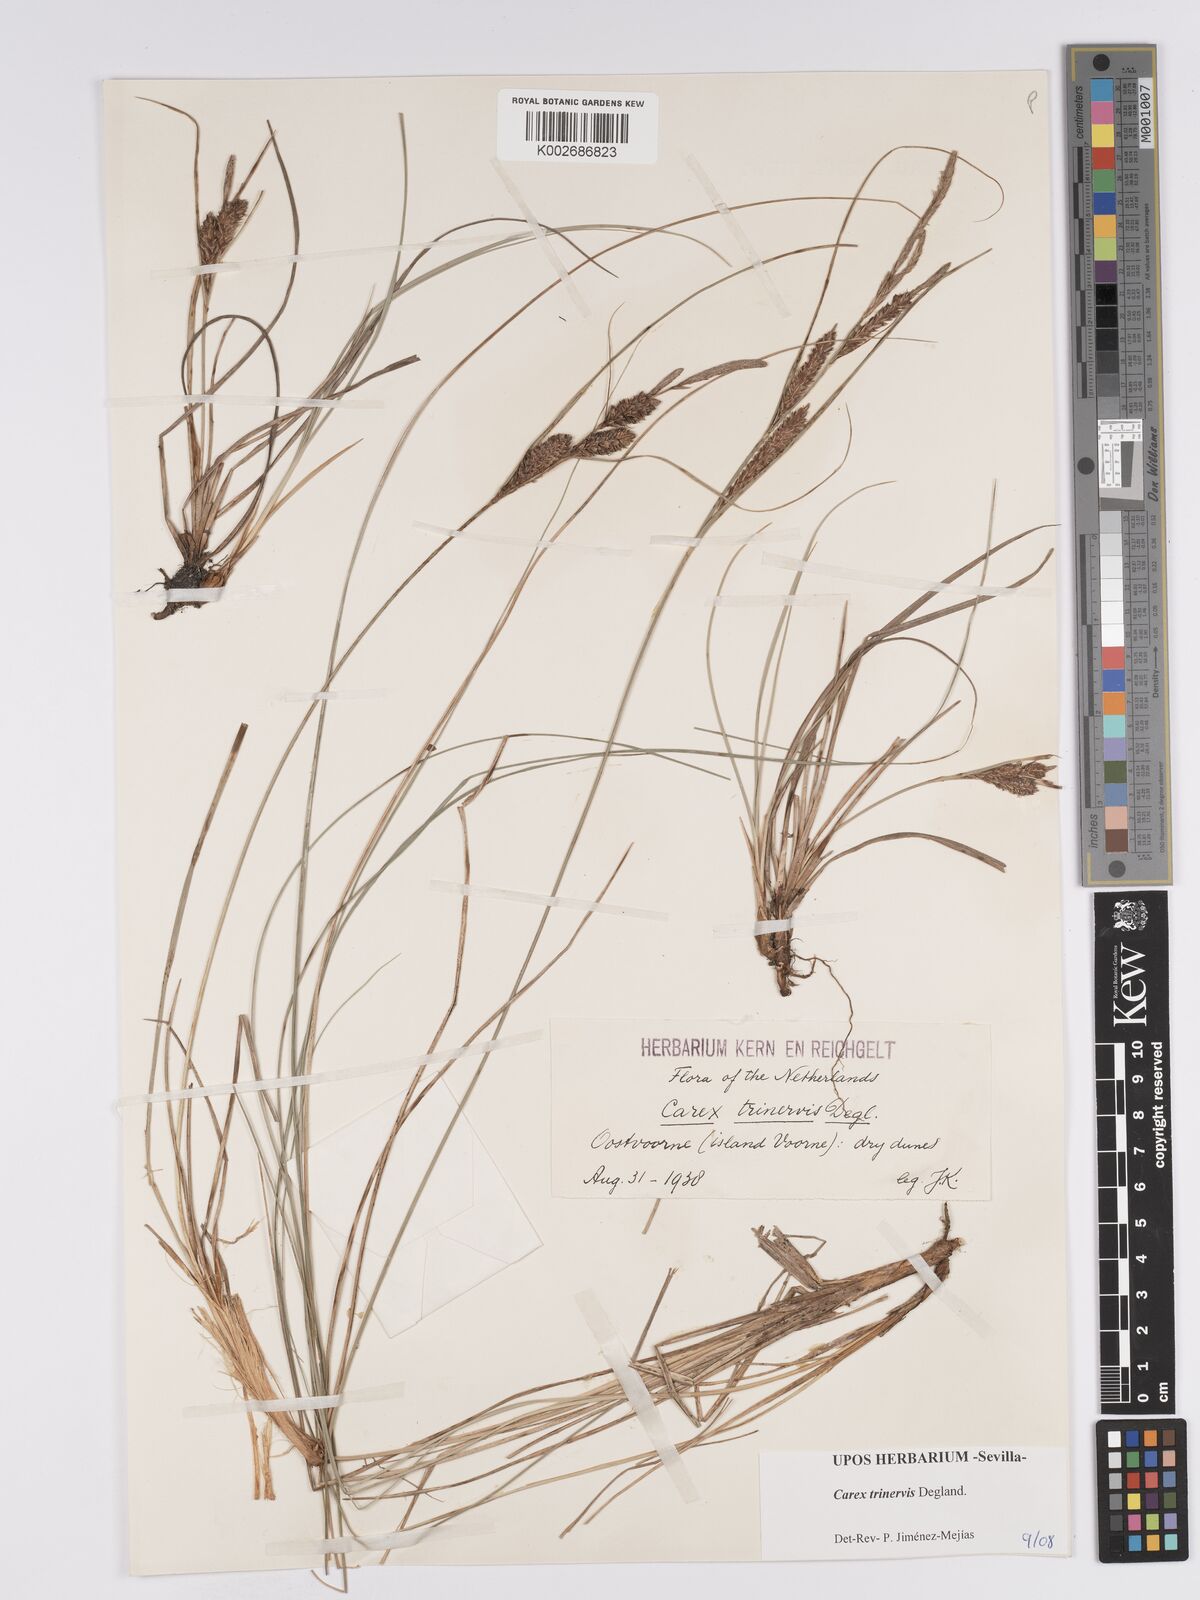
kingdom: Plantae
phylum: Tracheophyta
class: Liliopsida
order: Poales
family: Cyperaceae
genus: Carex
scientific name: Carex trinervis
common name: Three-nerved sedge
